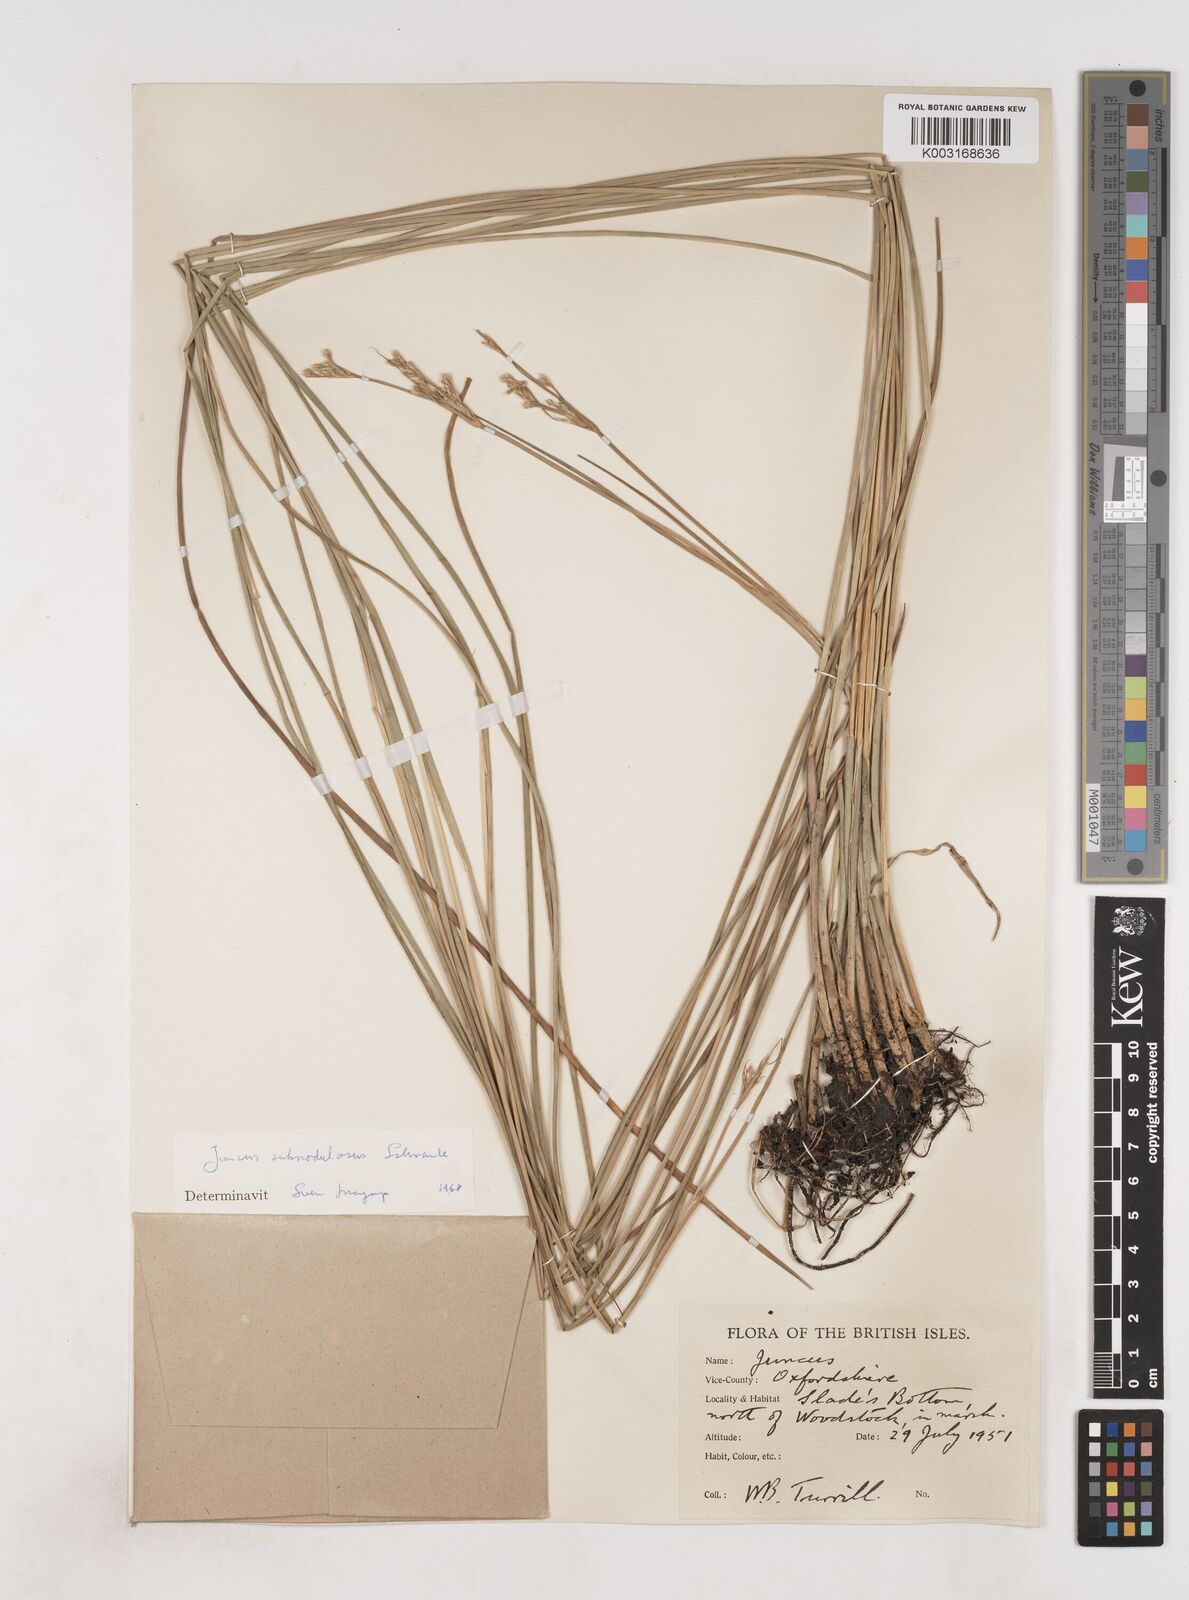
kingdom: Plantae
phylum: Tracheophyta
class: Liliopsida
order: Poales
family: Juncaceae
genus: Juncus
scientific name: Juncus subnodulosus
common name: Blunt-flowered rush
